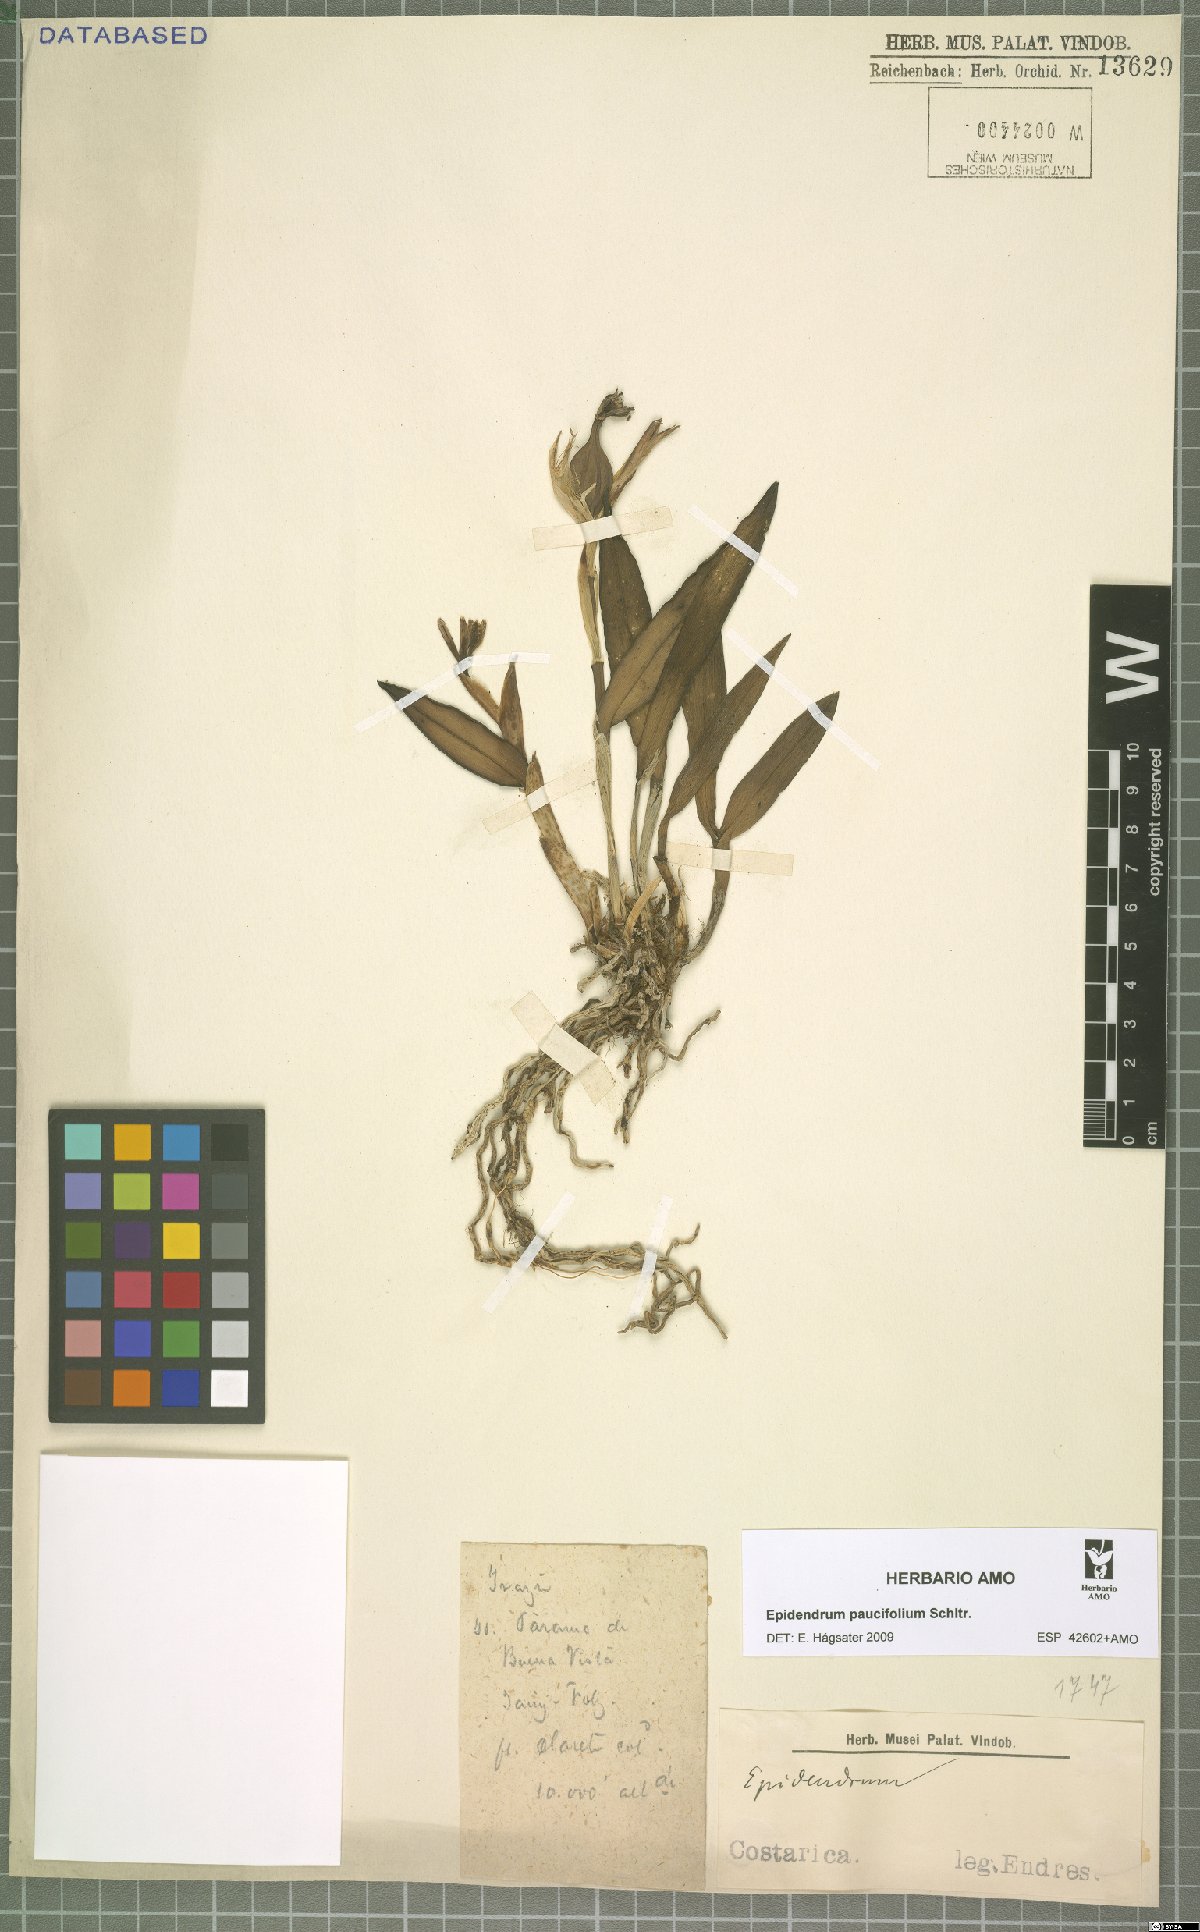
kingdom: Plantae
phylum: Tracheophyta
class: Liliopsida
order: Asparagales
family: Orchidaceae
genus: Epidendrum
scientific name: Epidendrum paucifolium
